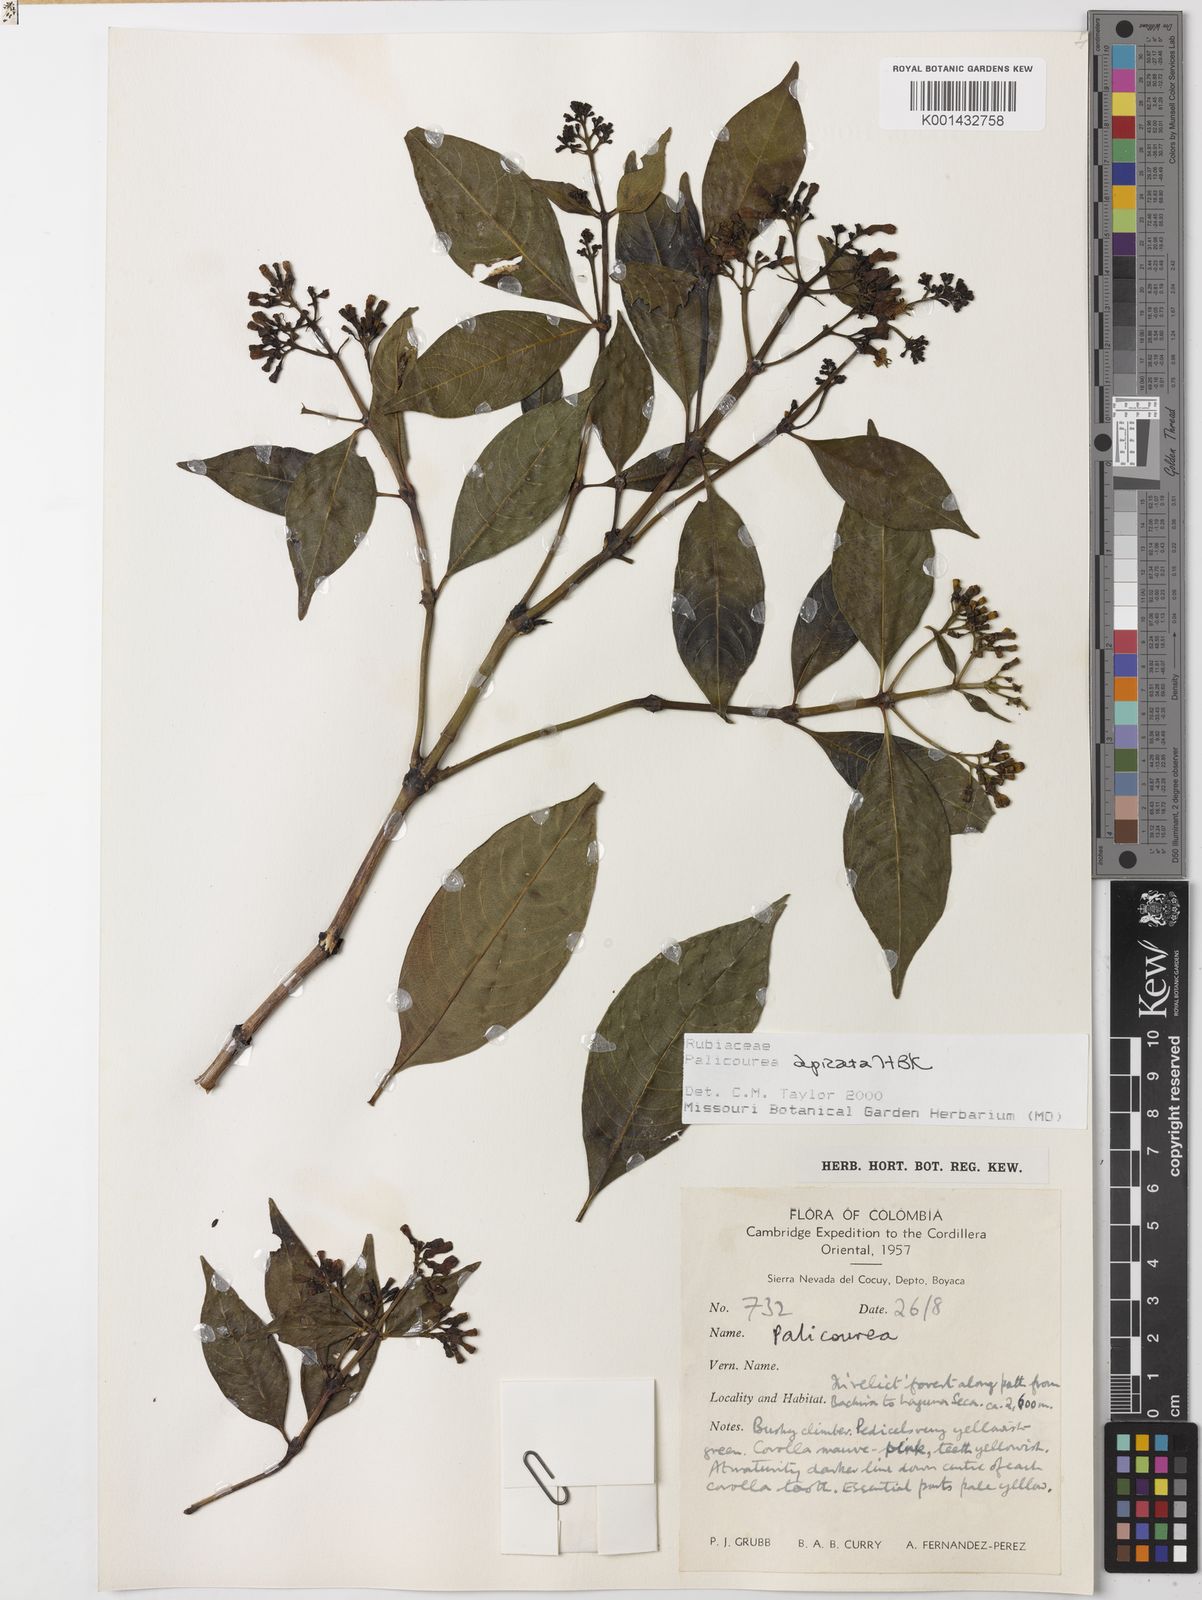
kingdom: Plantae
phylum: Tracheophyta
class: Magnoliopsida
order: Gentianales
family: Rubiaceae
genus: Palicourea
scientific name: Palicourea apicata
